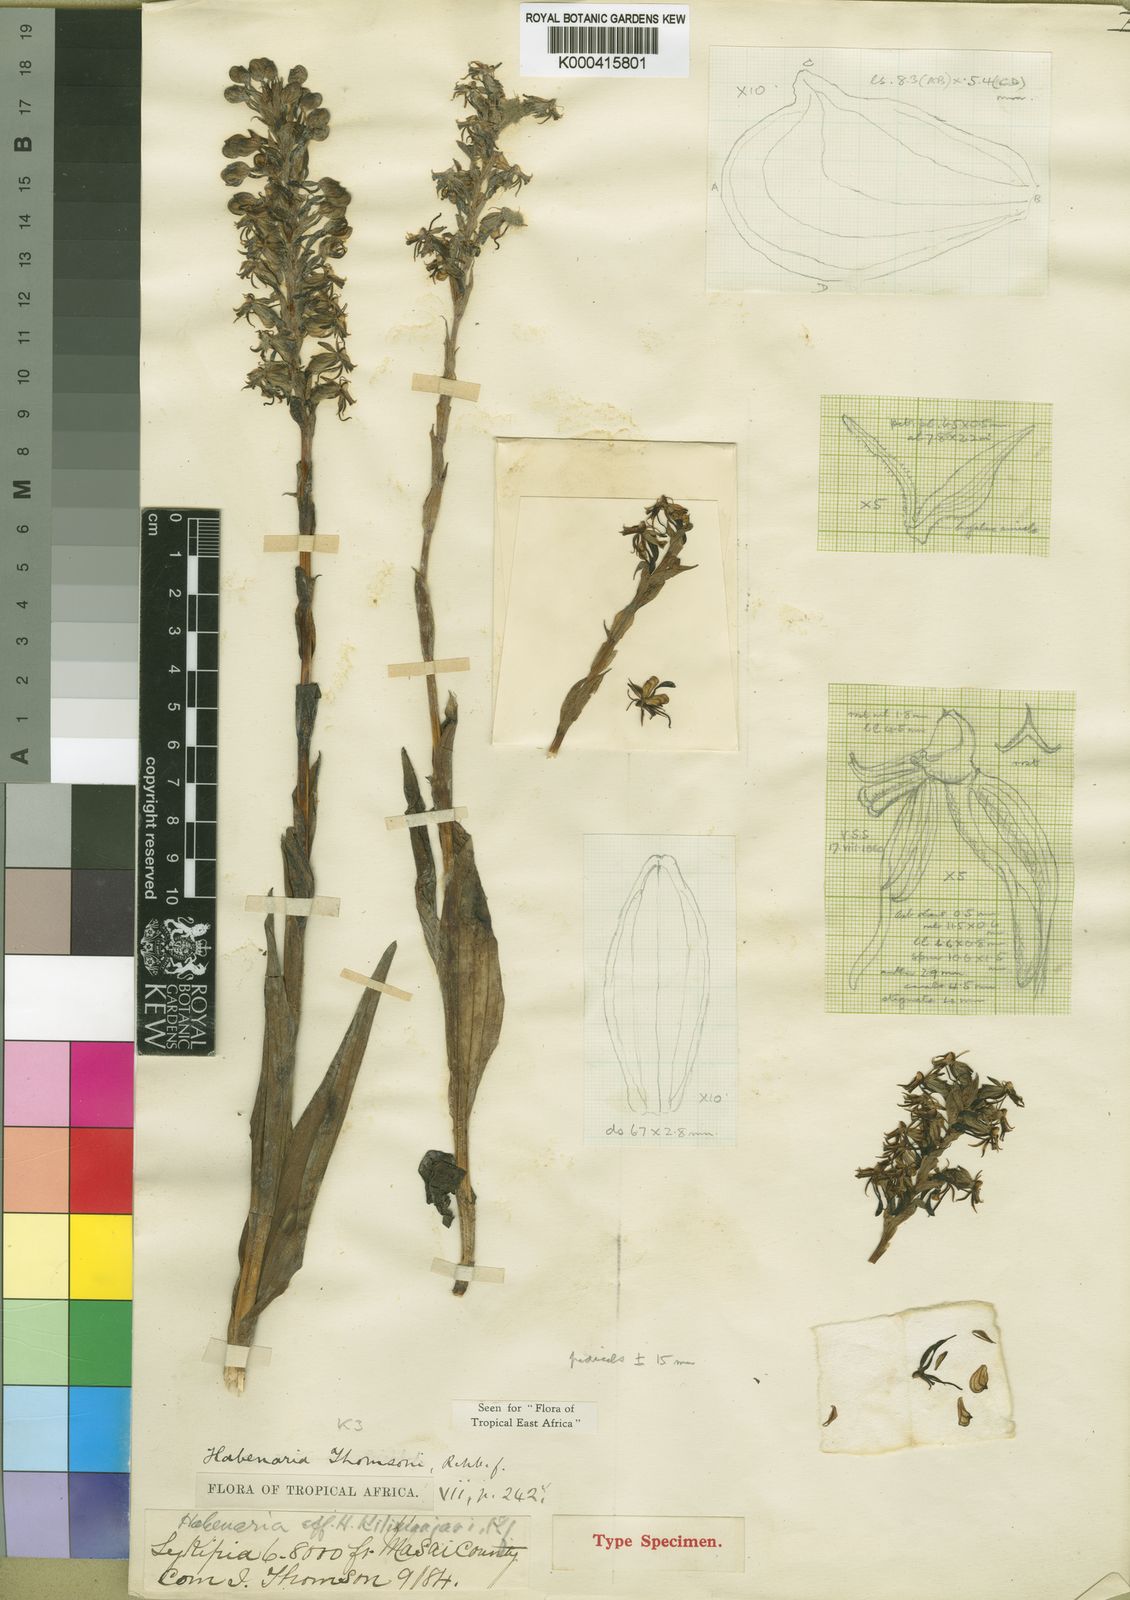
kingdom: Plantae
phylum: Tracheophyta
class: Liliopsida
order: Asparagales
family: Orchidaceae
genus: Habenaria
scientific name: Habenaria thomsonii
